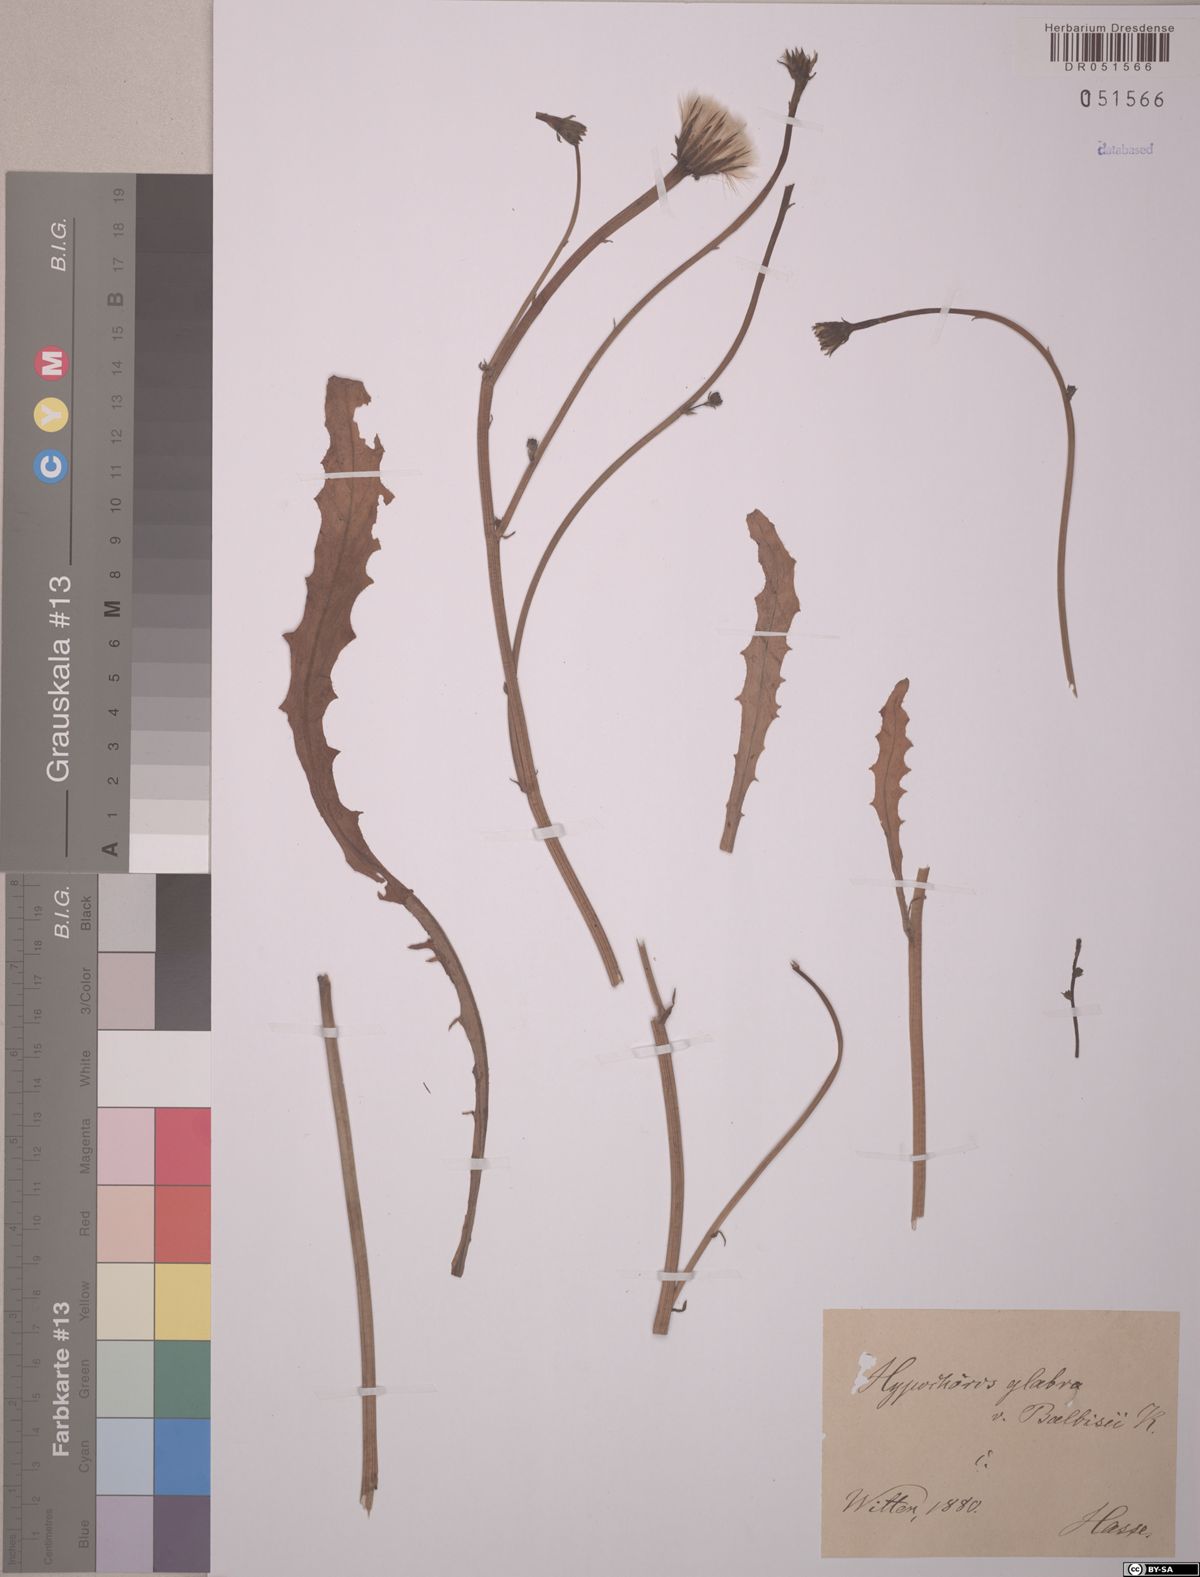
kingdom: Plantae
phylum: Tracheophyta
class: Magnoliopsida
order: Asterales
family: Asteraceae
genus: Hypochaeris
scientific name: Hypochaeris glabra
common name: Smooth catsear
